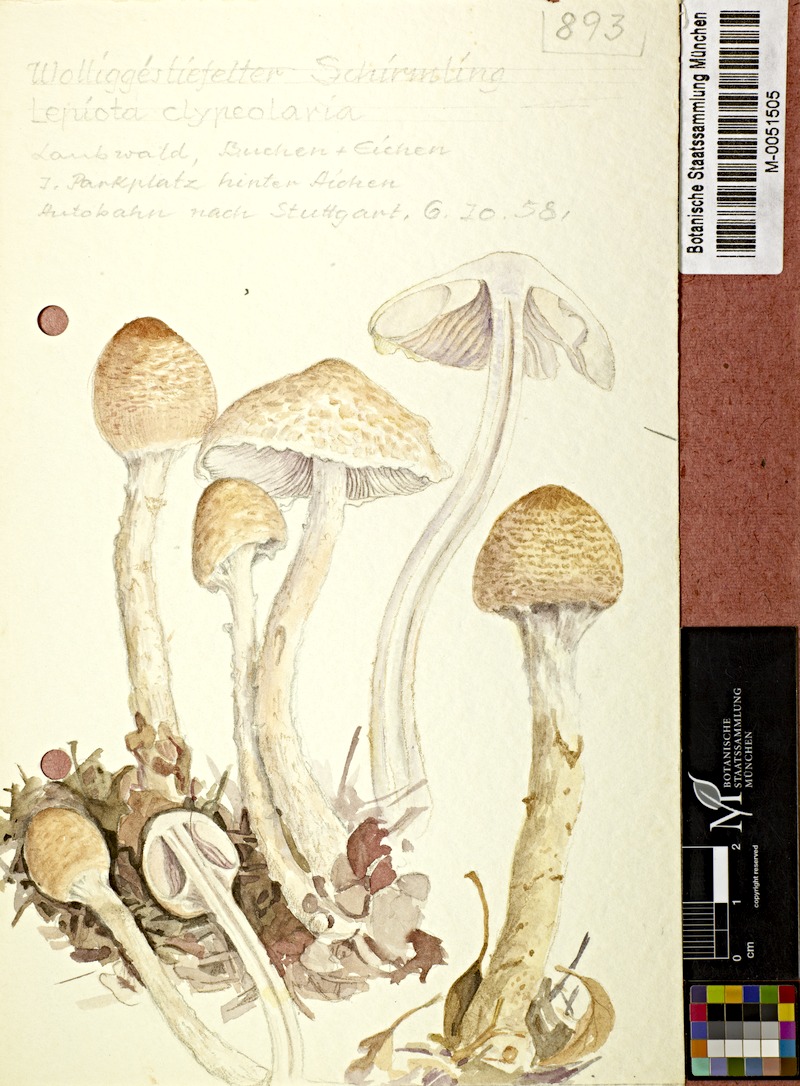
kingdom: Fungi
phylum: Basidiomycota
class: Agaricomycetes
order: Agaricales
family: Agaricaceae
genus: Lepiota
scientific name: Lepiota clypeolaria
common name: Shield dapperling
